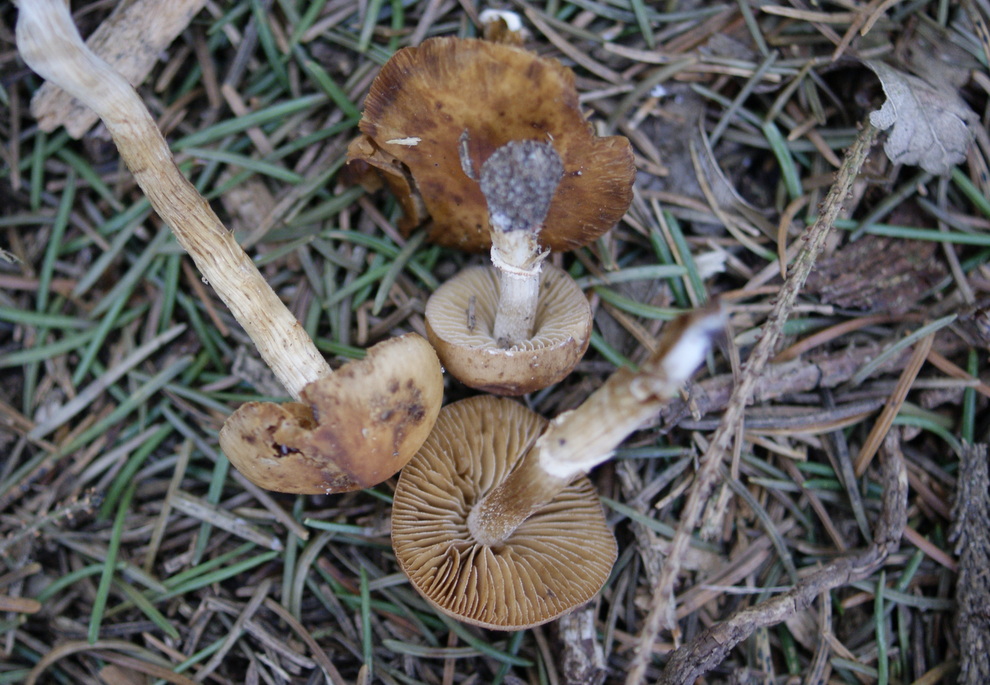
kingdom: Fungi
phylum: Basidiomycota
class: Agaricomycetes
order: Agaricales
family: Bolbitiaceae
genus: Conocybe
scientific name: Conocybe aporos
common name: tidlig dansehat
